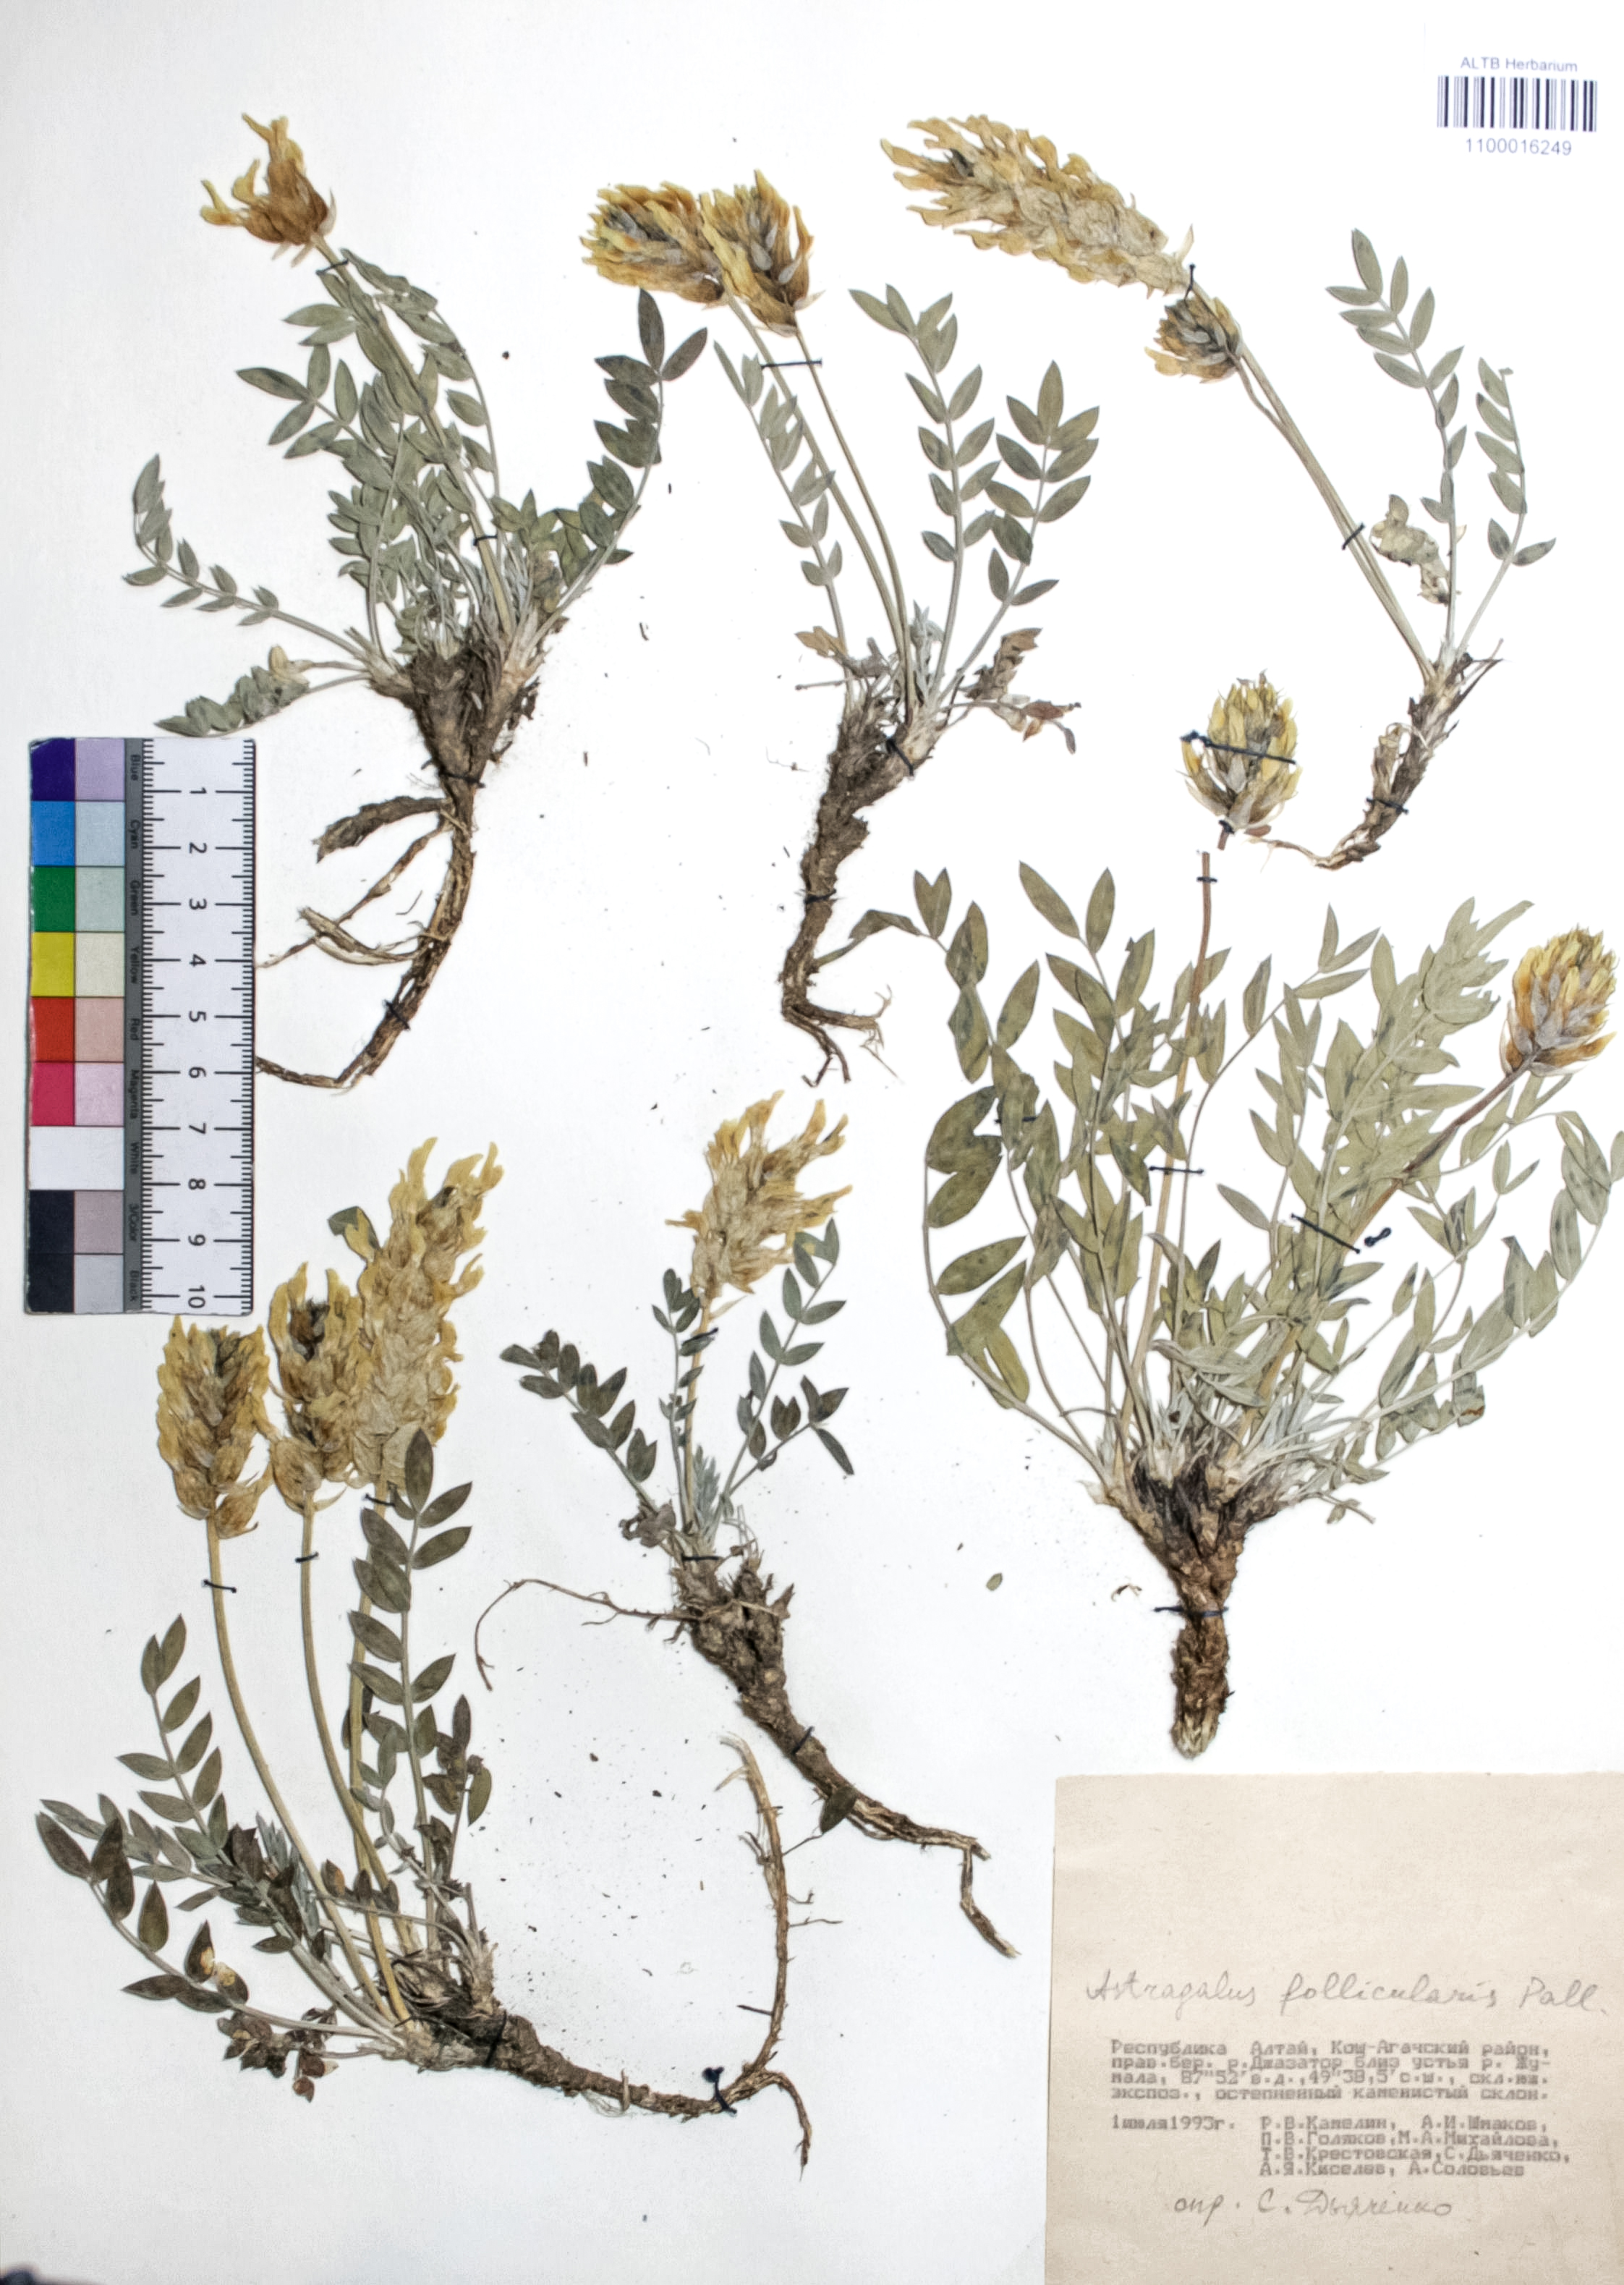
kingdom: Plantae
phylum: Tracheophyta
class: Magnoliopsida
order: Fabales
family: Fabaceae
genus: Astragalus
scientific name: Astragalus follicularis
